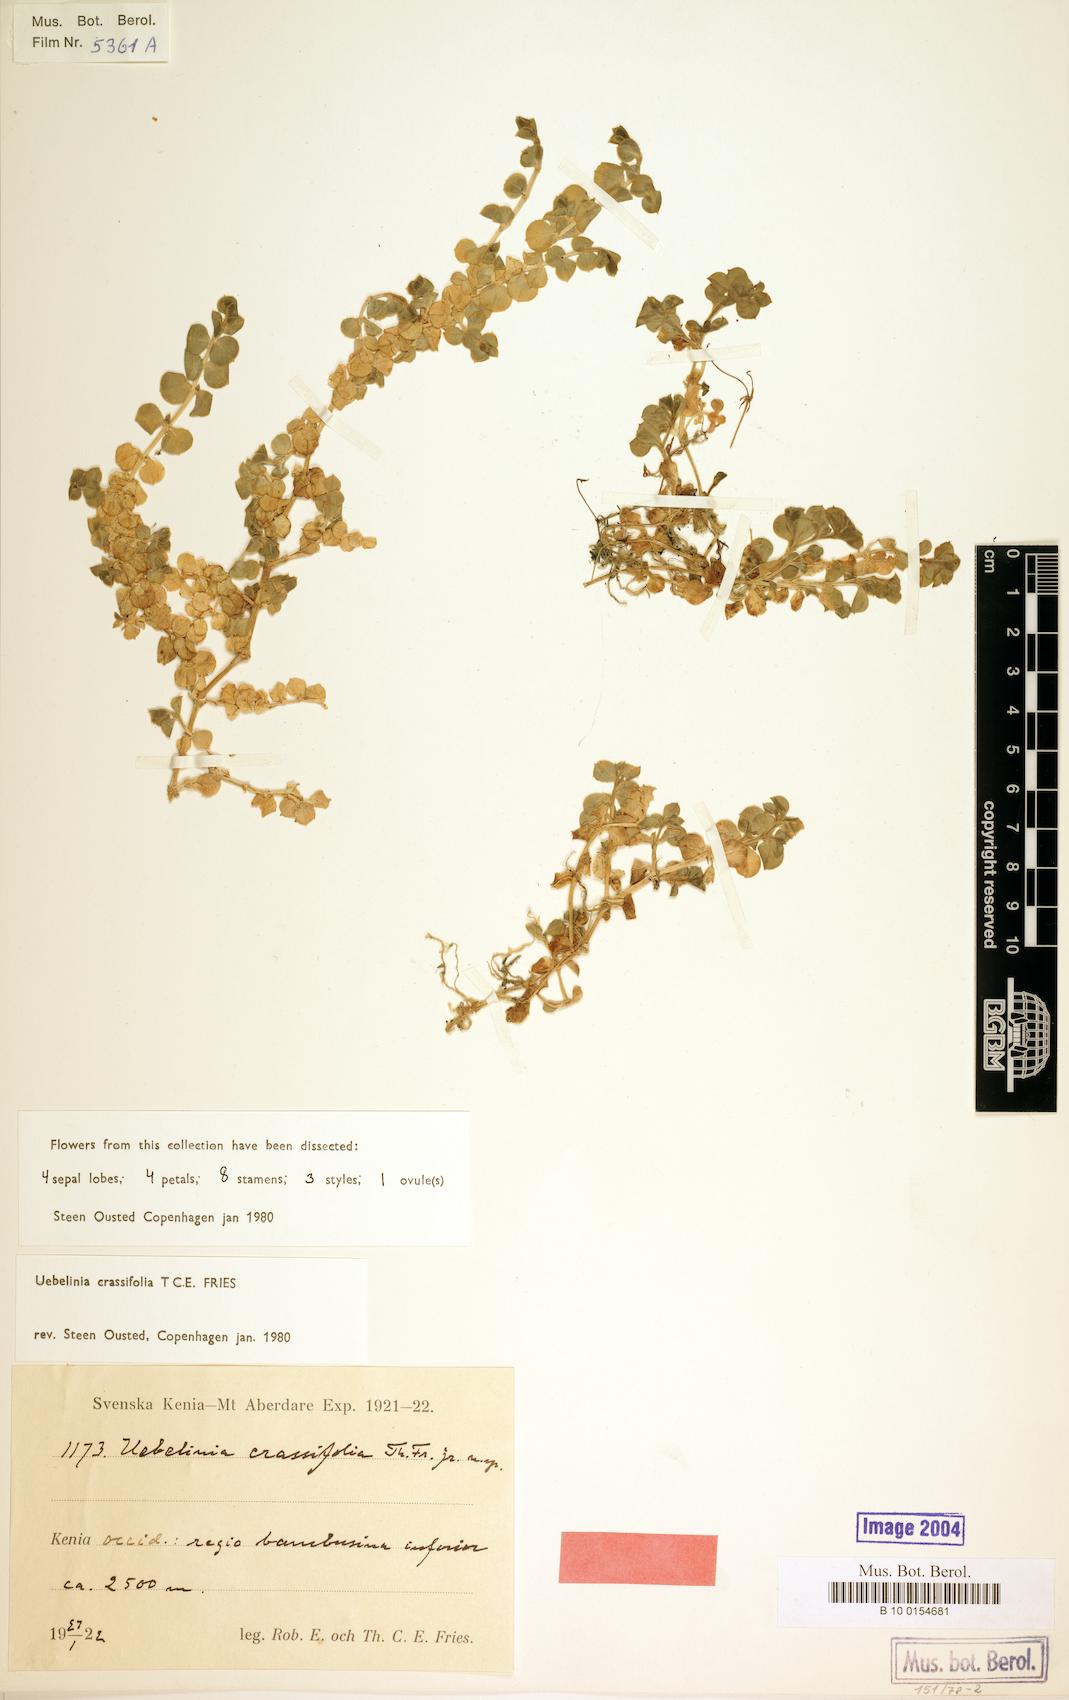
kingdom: Plantae
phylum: Tracheophyta
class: Magnoliopsida
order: Caryophyllales
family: Caryophyllaceae
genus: Silene
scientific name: Silene kenyana
